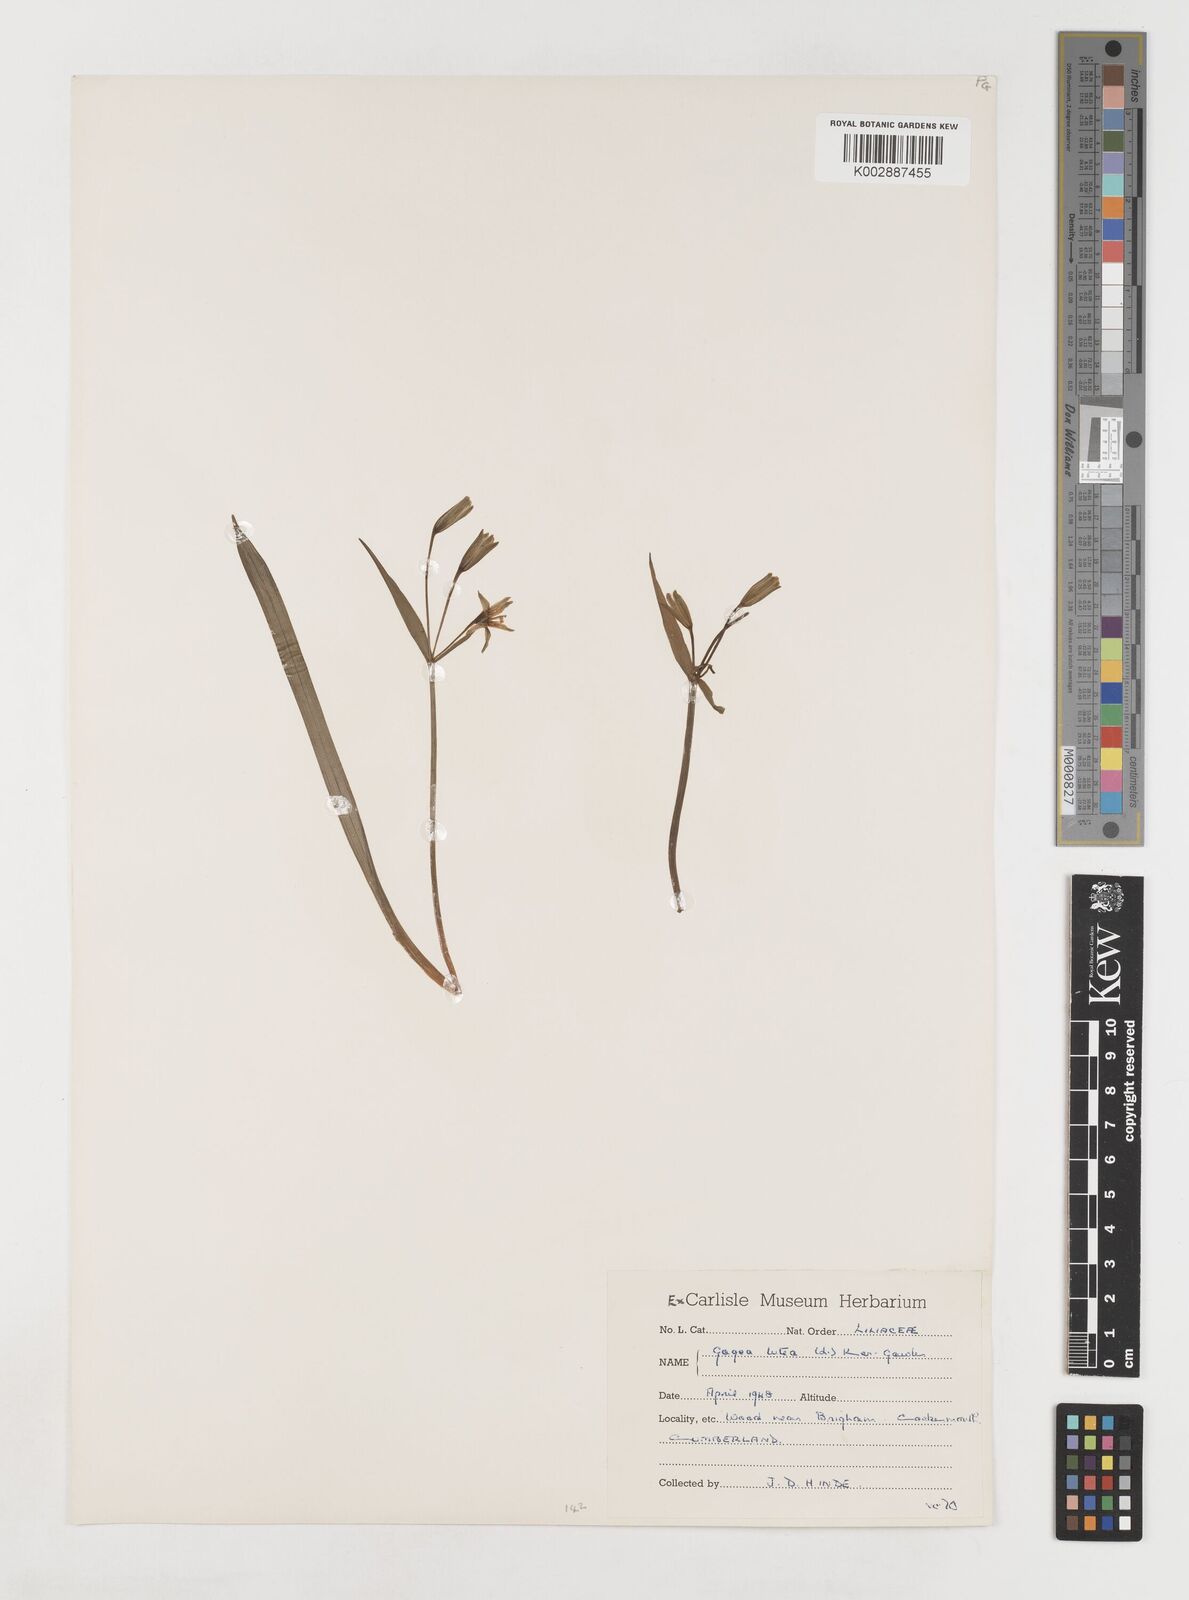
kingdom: Plantae
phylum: Tracheophyta
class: Liliopsida
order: Liliales
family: Liliaceae
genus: Gagea
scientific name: Gagea lutea
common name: Yellow star-of-bethlehem
